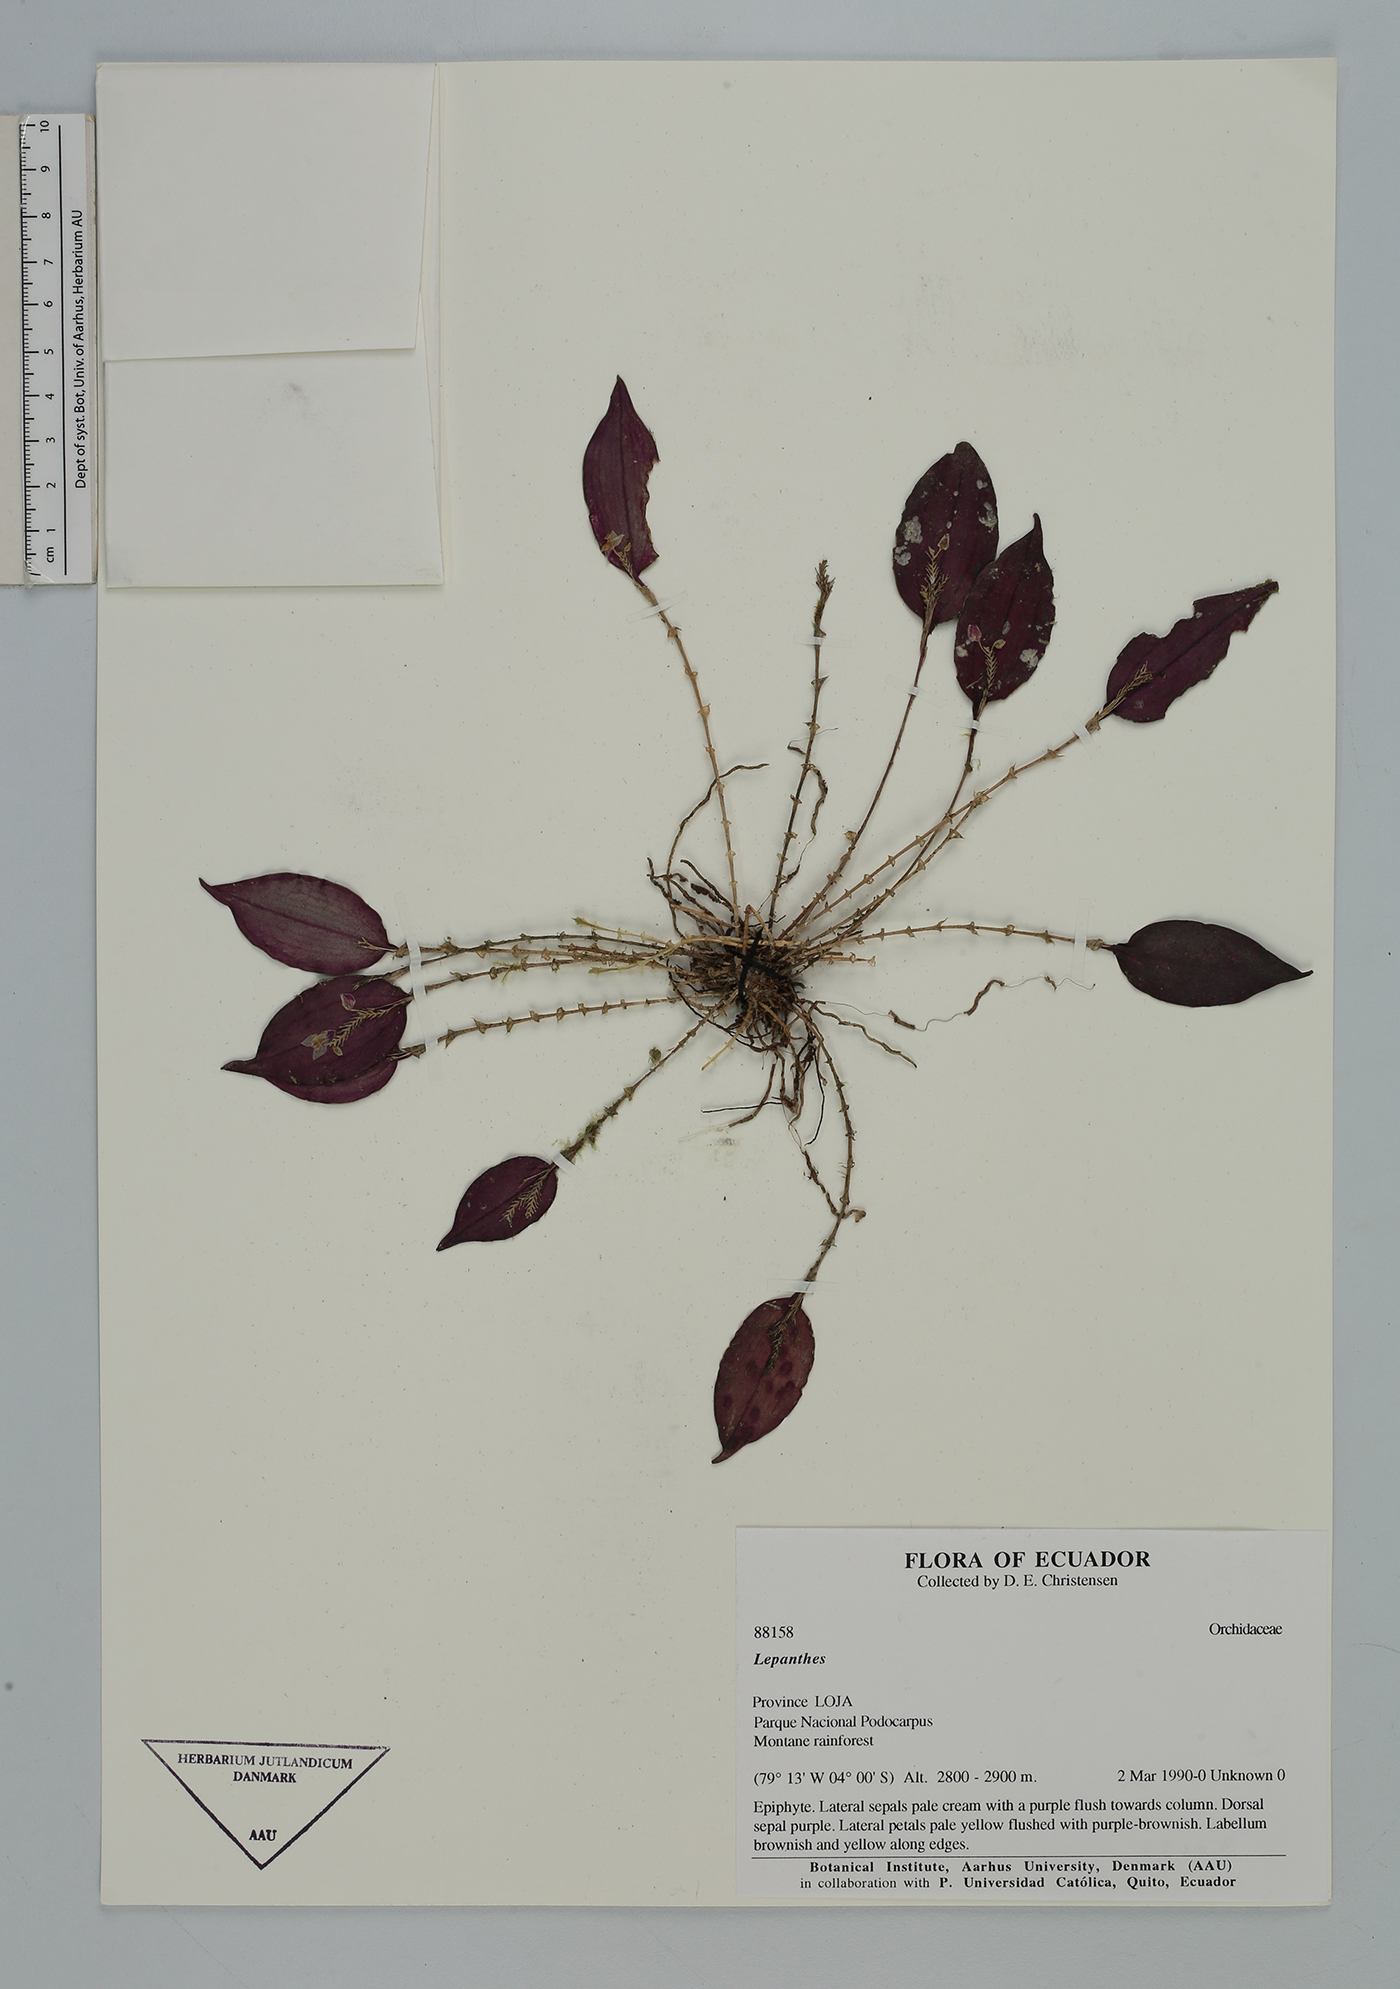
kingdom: Plantae
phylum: Tracheophyta
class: Liliopsida
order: Asparagales
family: Orchidaceae
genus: Lepanthes
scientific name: Lepanthes
